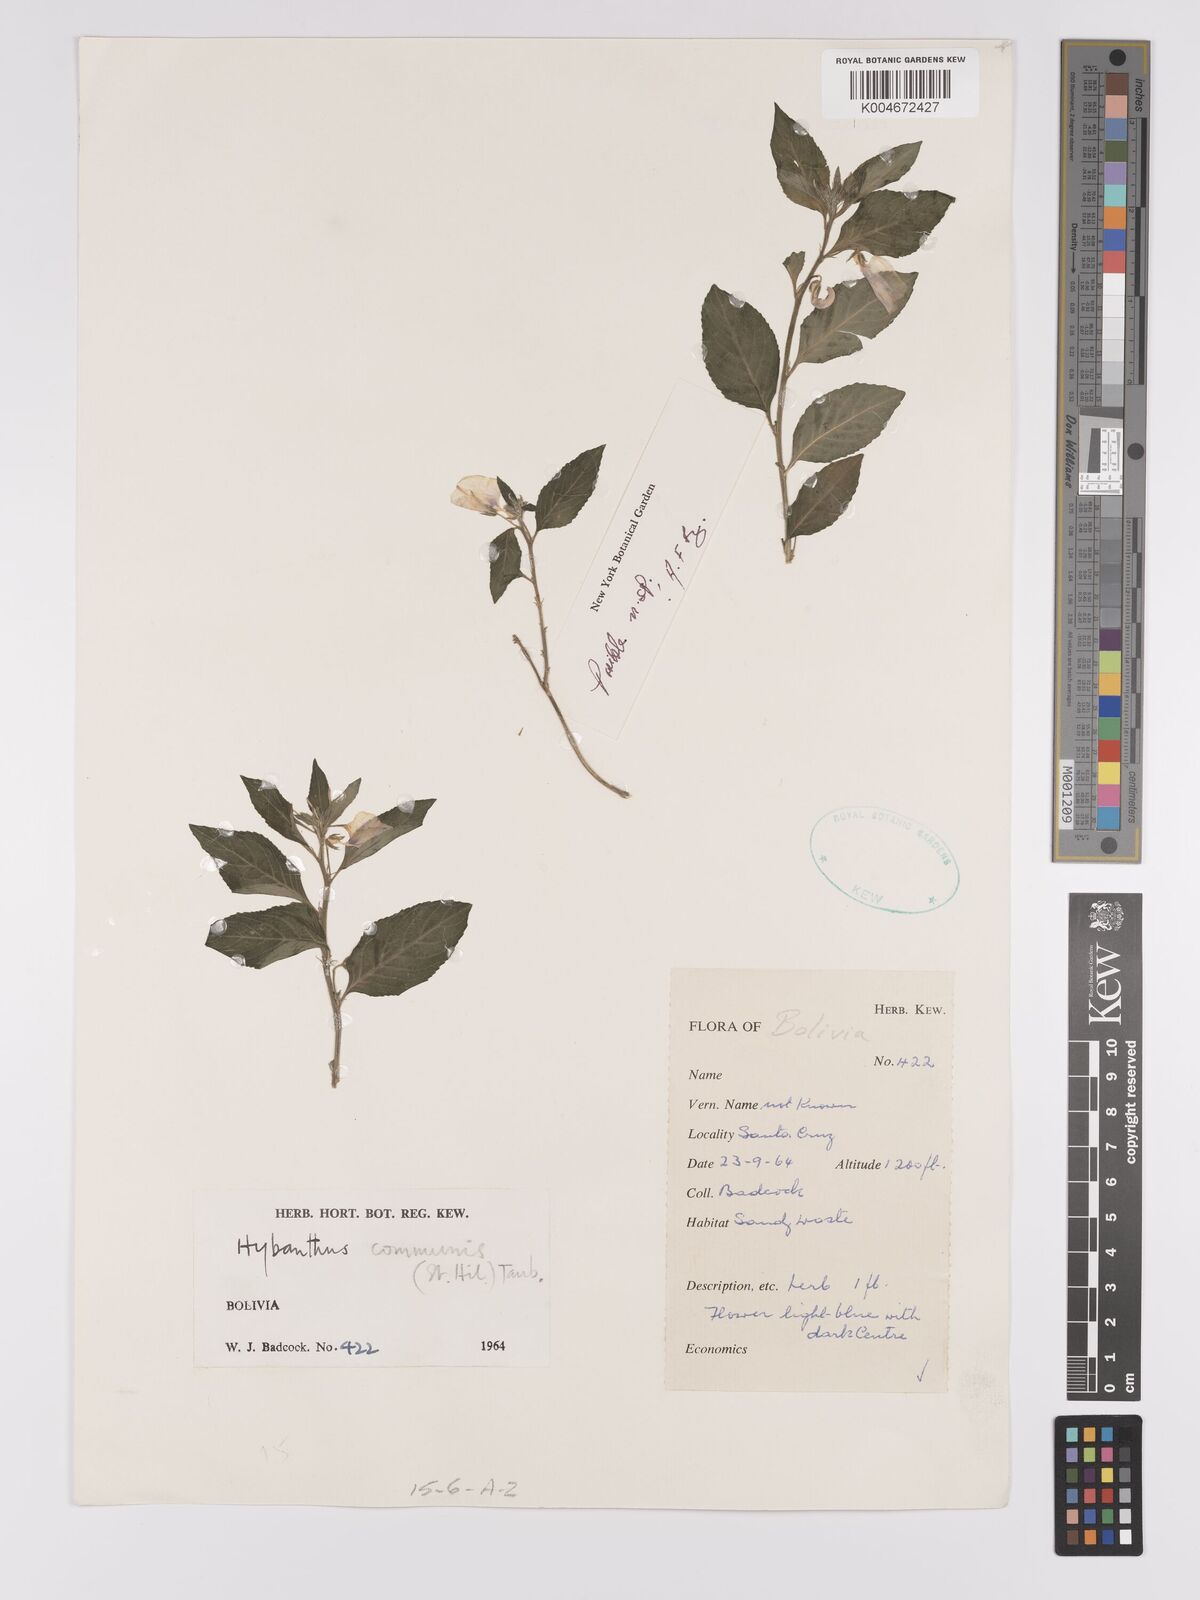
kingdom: Plantae
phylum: Tracheophyta
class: Magnoliopsida
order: Malpighiales
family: Violaceae
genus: Pombalia
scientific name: Pombalia communis
